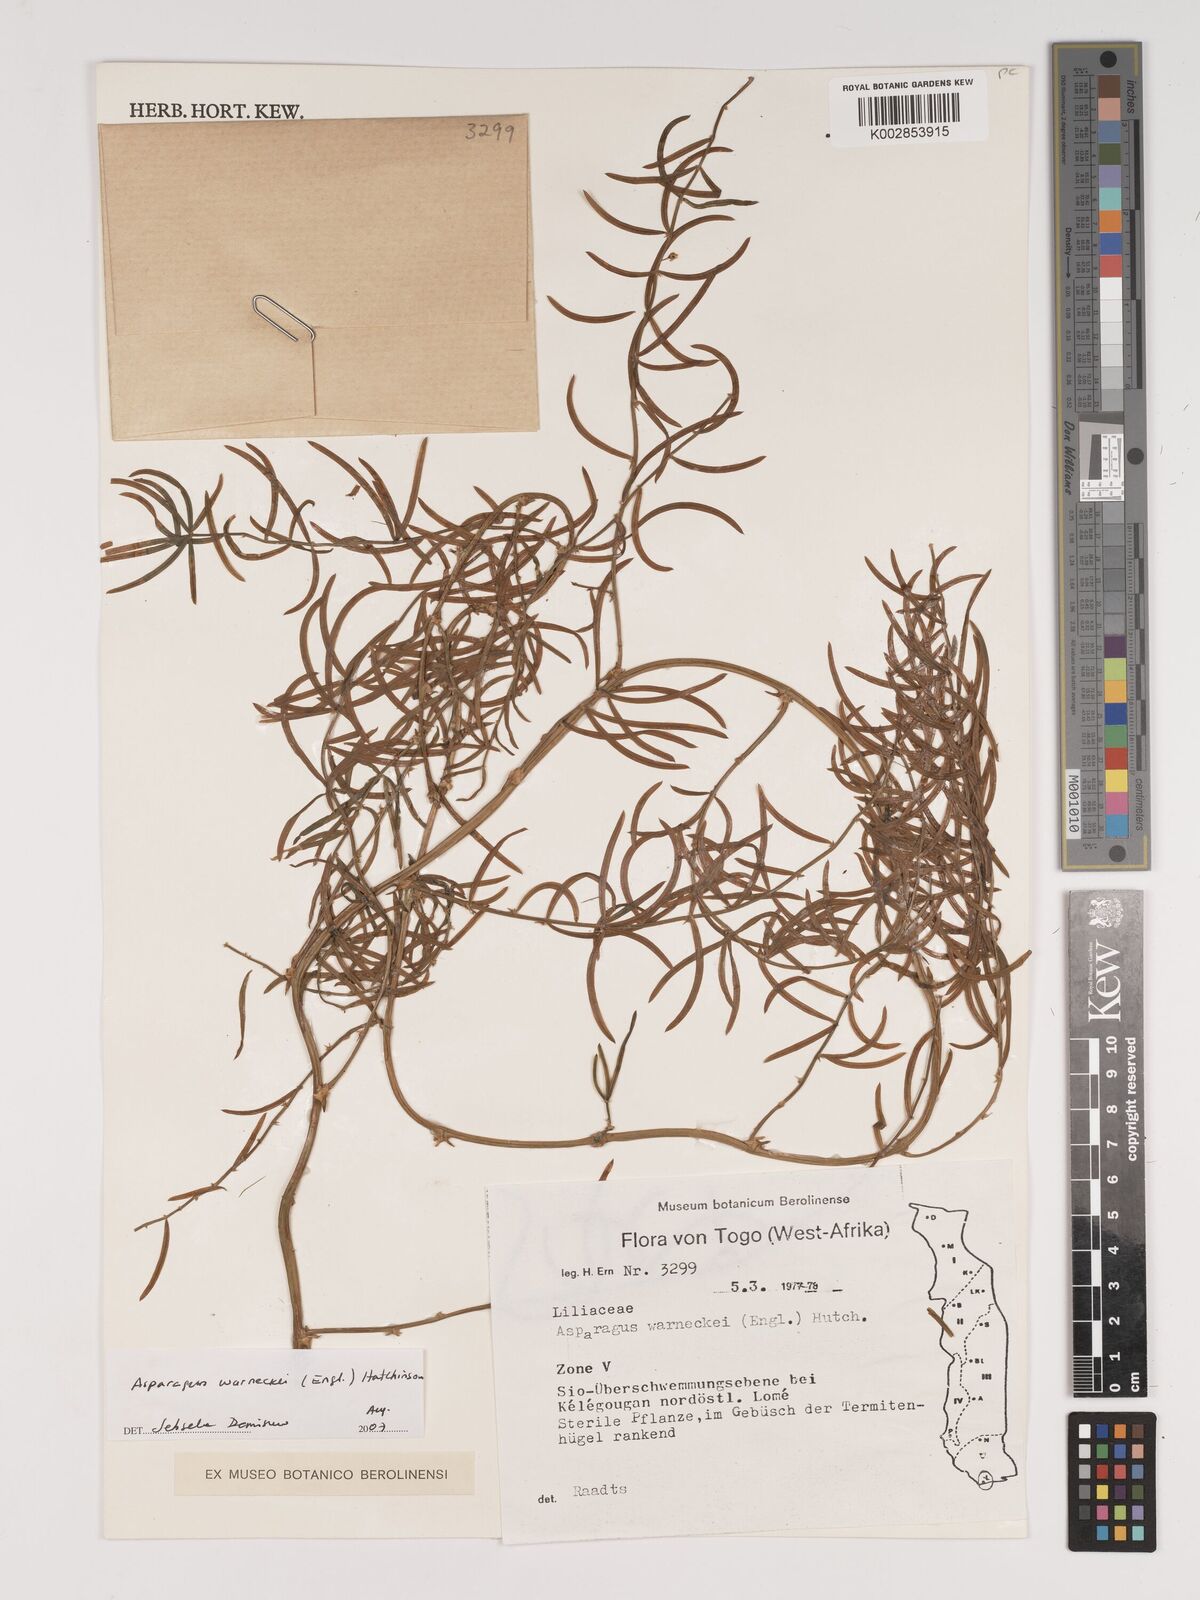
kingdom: Plantae
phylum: Tracheophyta
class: Liliopsida
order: Asparagales
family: Asparagaceae
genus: Asparagus
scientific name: Asparagus warneckei
